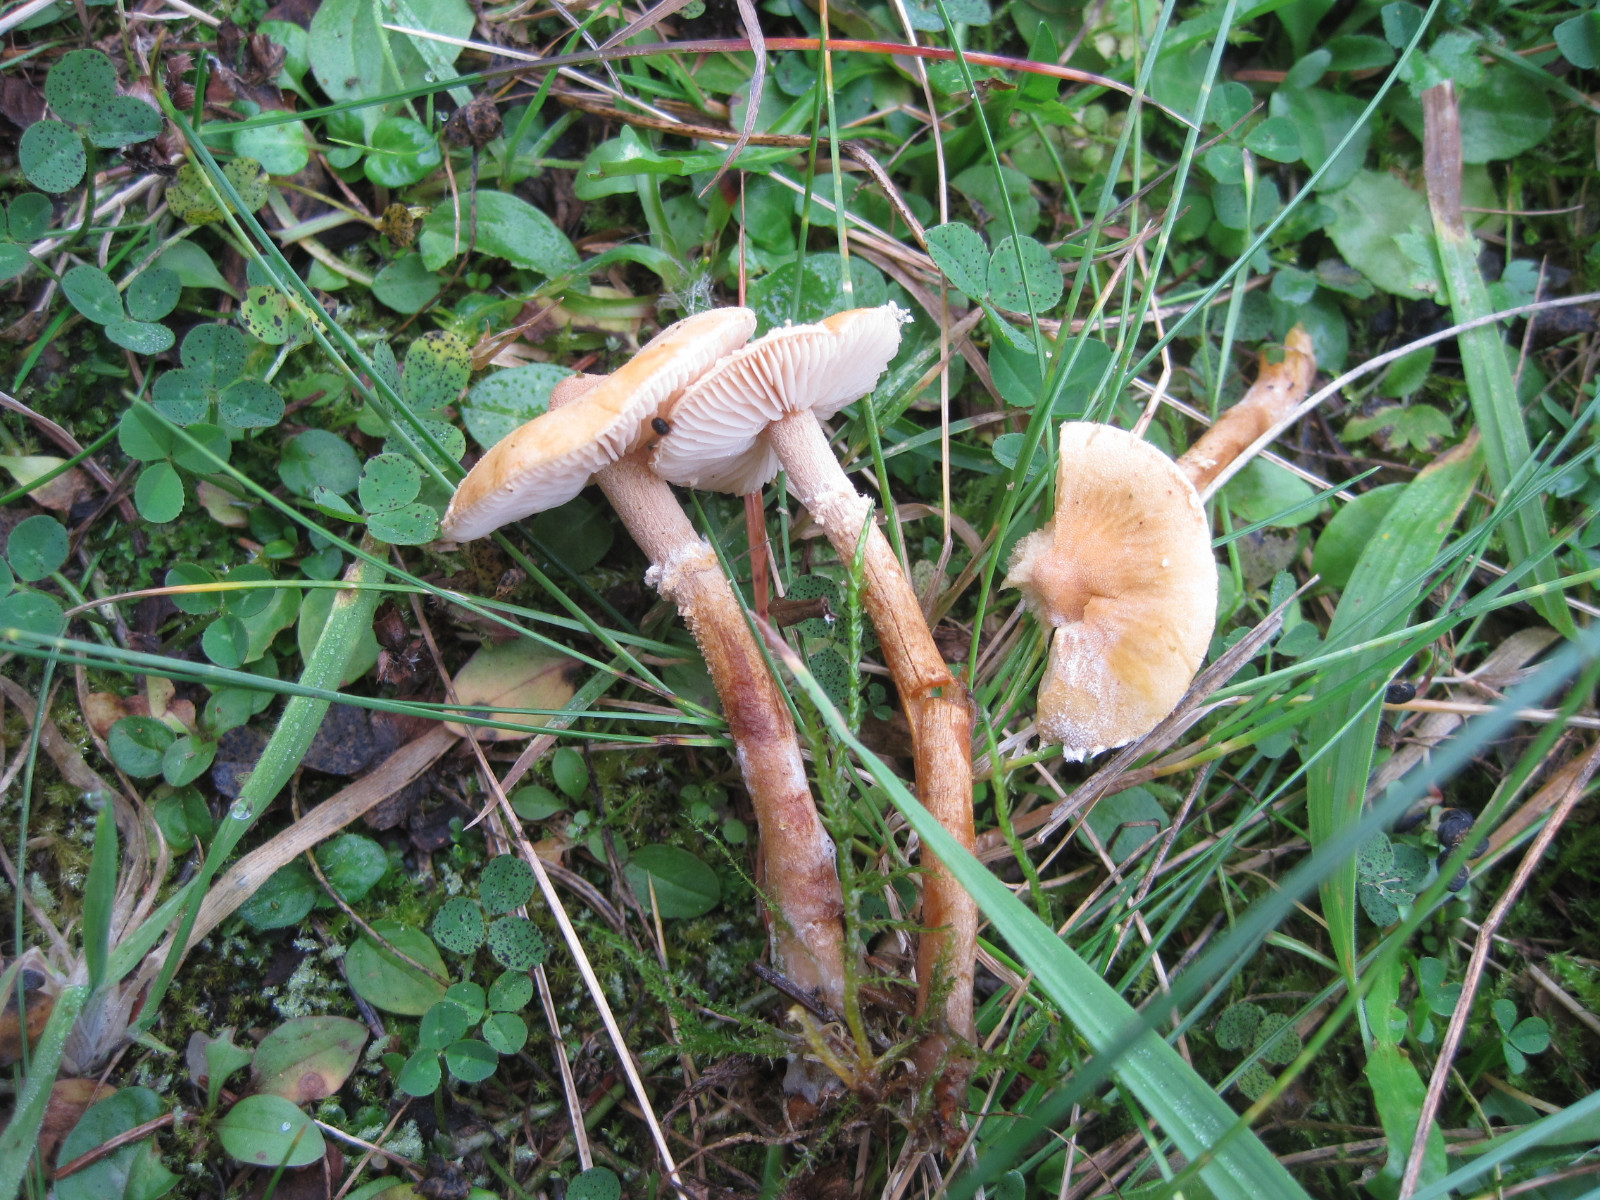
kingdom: Fungi
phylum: Basidiomycota
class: Agaricomycetes
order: Agaricales
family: Tricholomataceae
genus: Cystoderma
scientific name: Cystoderma amianthinum
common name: okkergul grynhat
